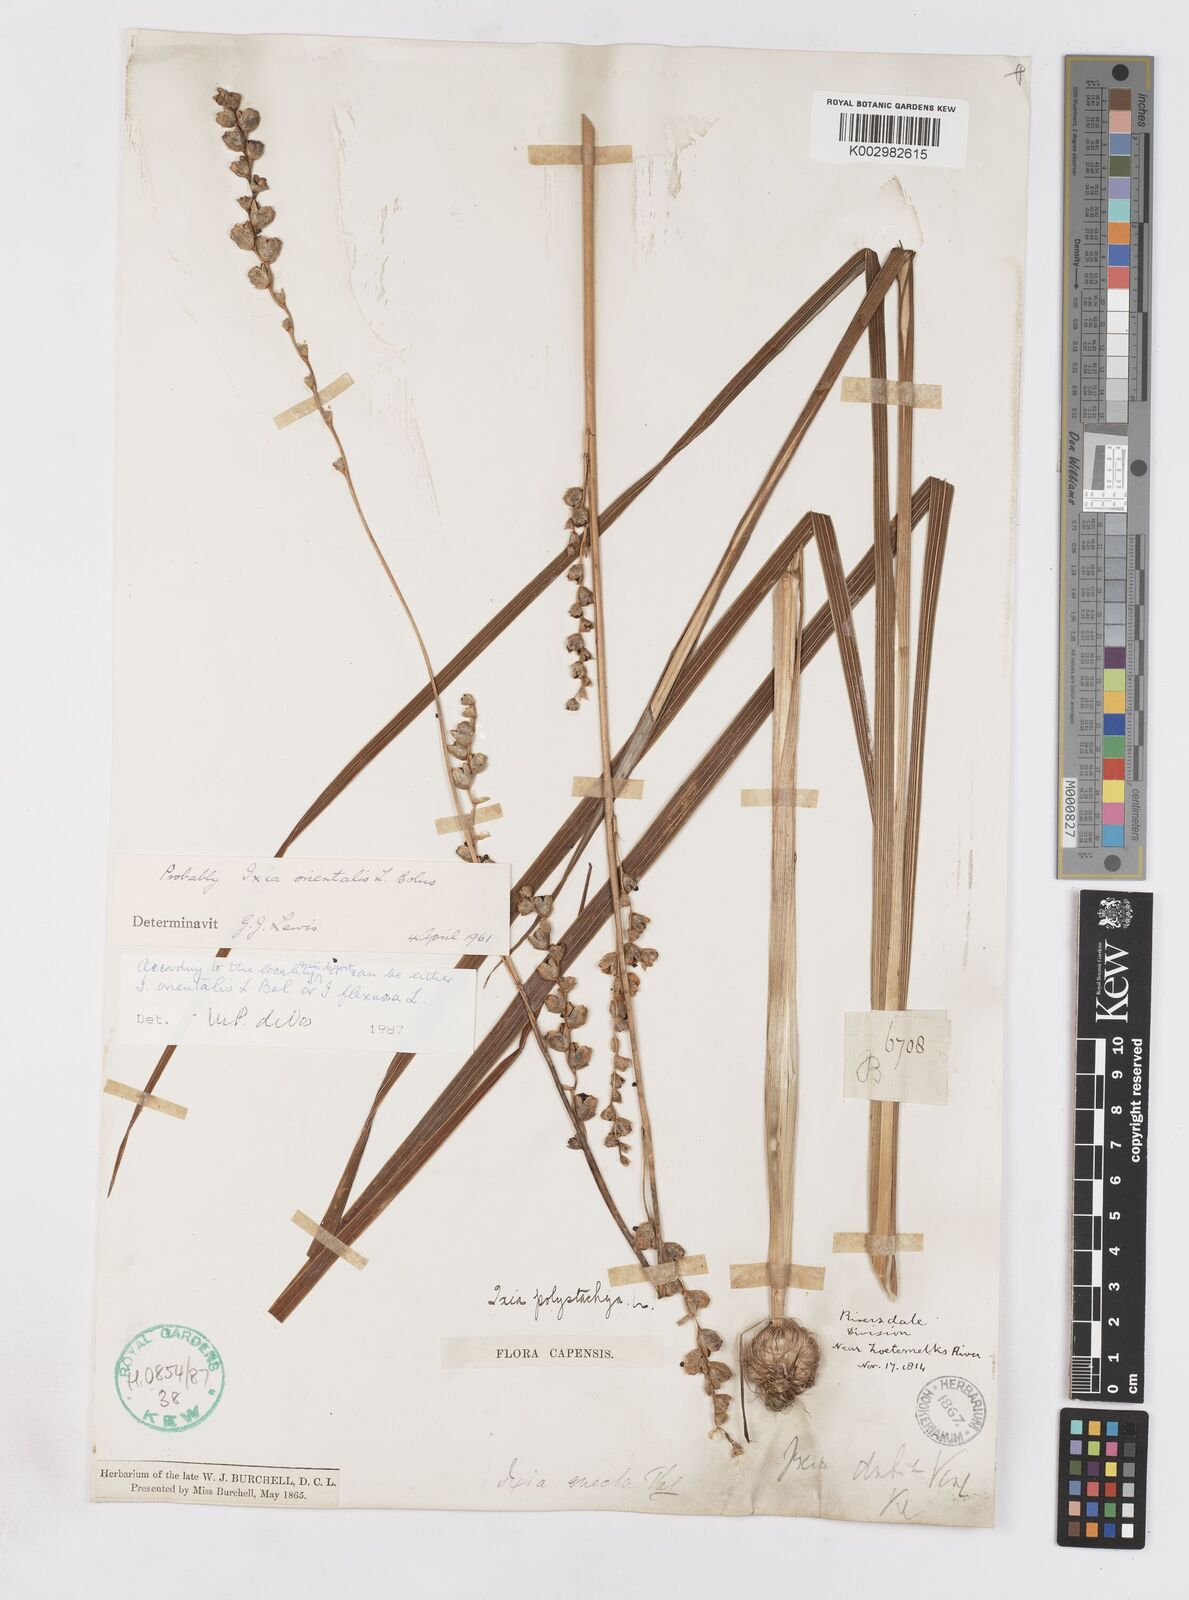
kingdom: Plantae
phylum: Tracheophyta
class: Liliopsida
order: Asparagales
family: Iridaceae
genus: Ixia
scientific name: Ixia orientalis
